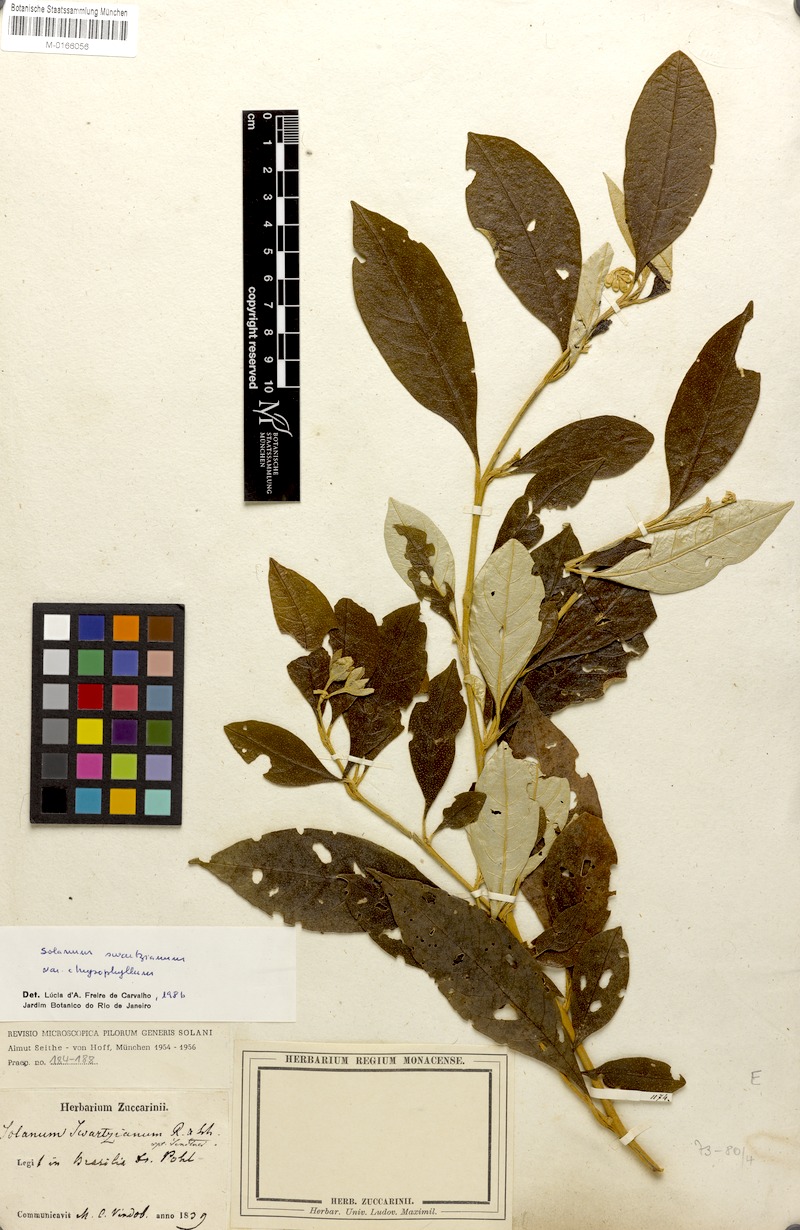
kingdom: Plantae
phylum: Tracheophyta
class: Magnoliopsida
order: Solanales
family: Solanaceae
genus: Solanum
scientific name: Solanum swartzianum
